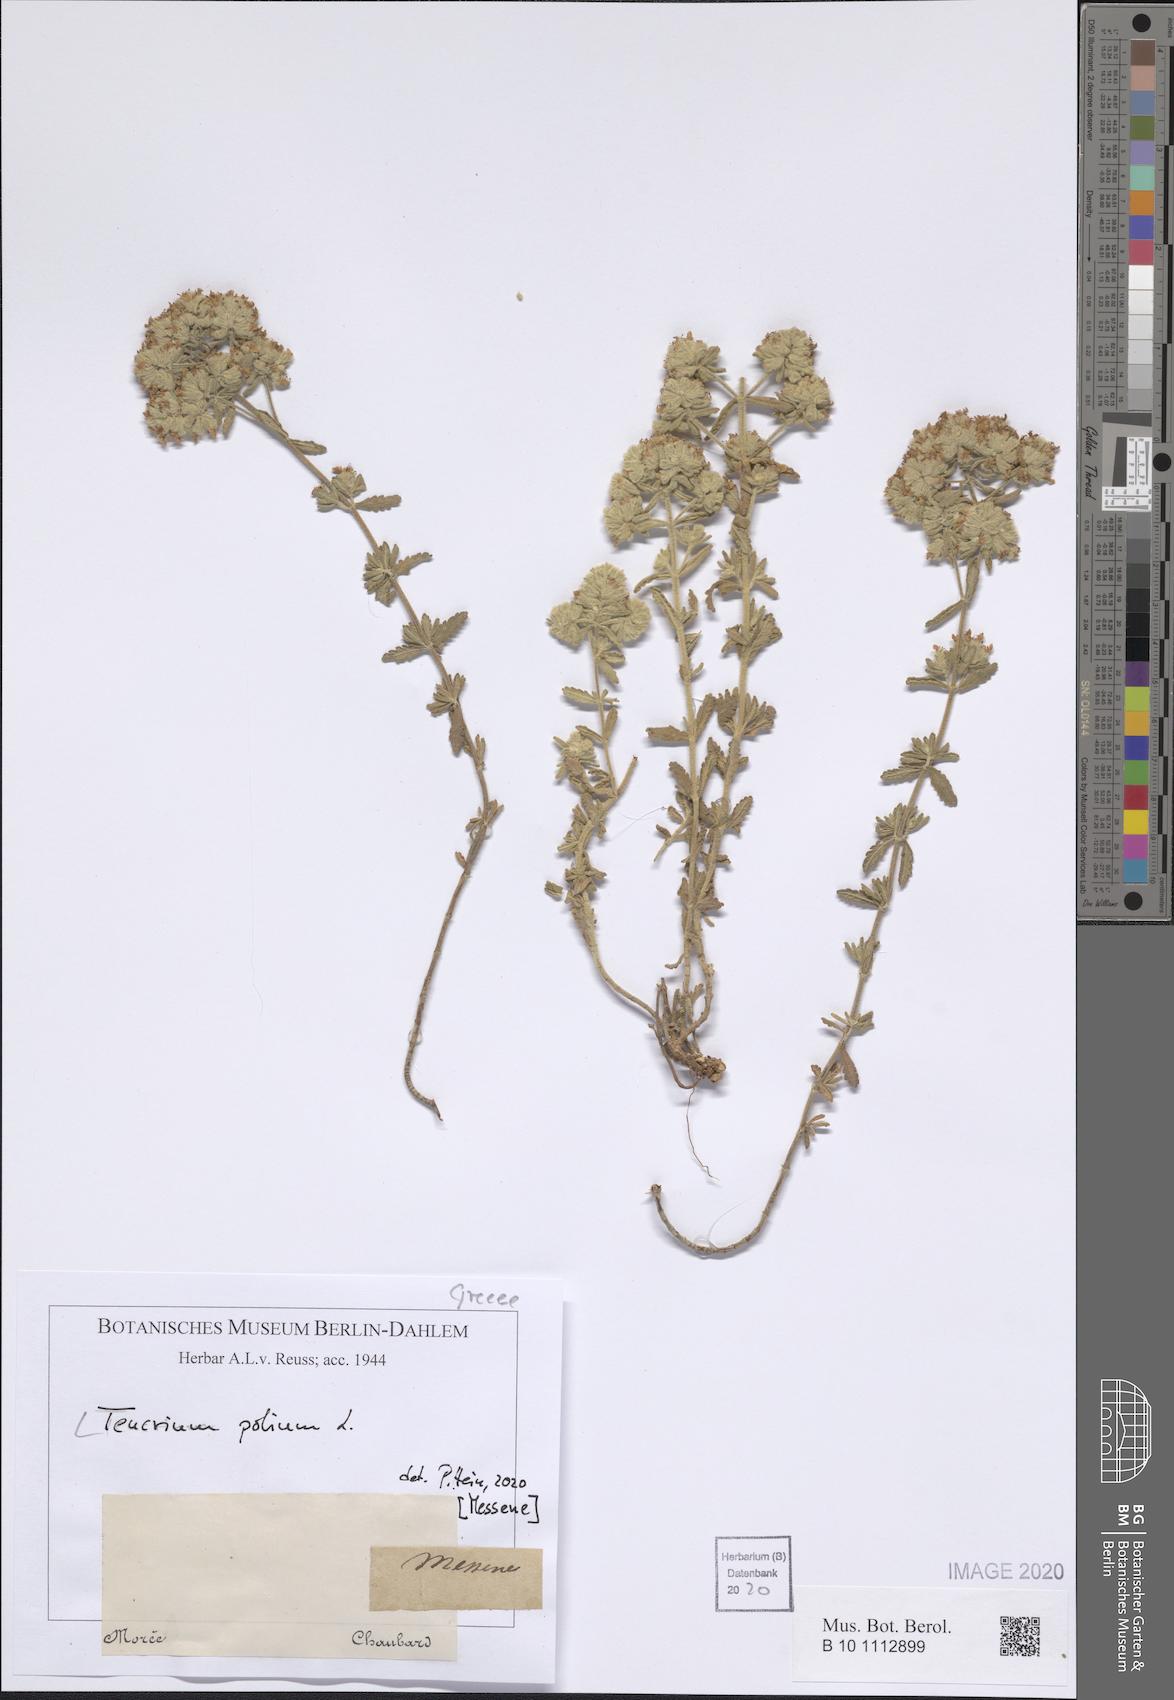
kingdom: Plantae
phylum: Tracheophyta
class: Magnoliopsida
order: Lamiales
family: Lamiaceae
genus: Teucrium
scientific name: Teucrium polium
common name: Poley
